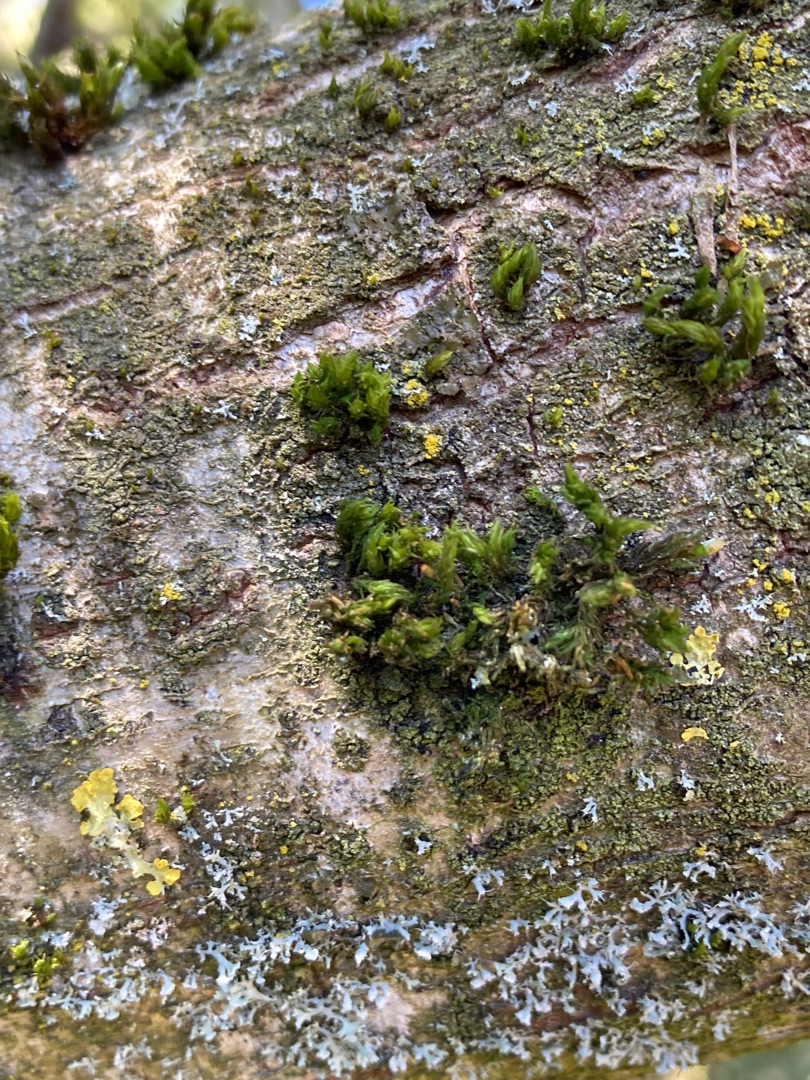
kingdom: Plantae
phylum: Bryophyta
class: Bryopsida
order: Orthotrichales
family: Orthotrichaceae
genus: Lewinskya
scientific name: Lewinskya affinis
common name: Almindelig furehætte
